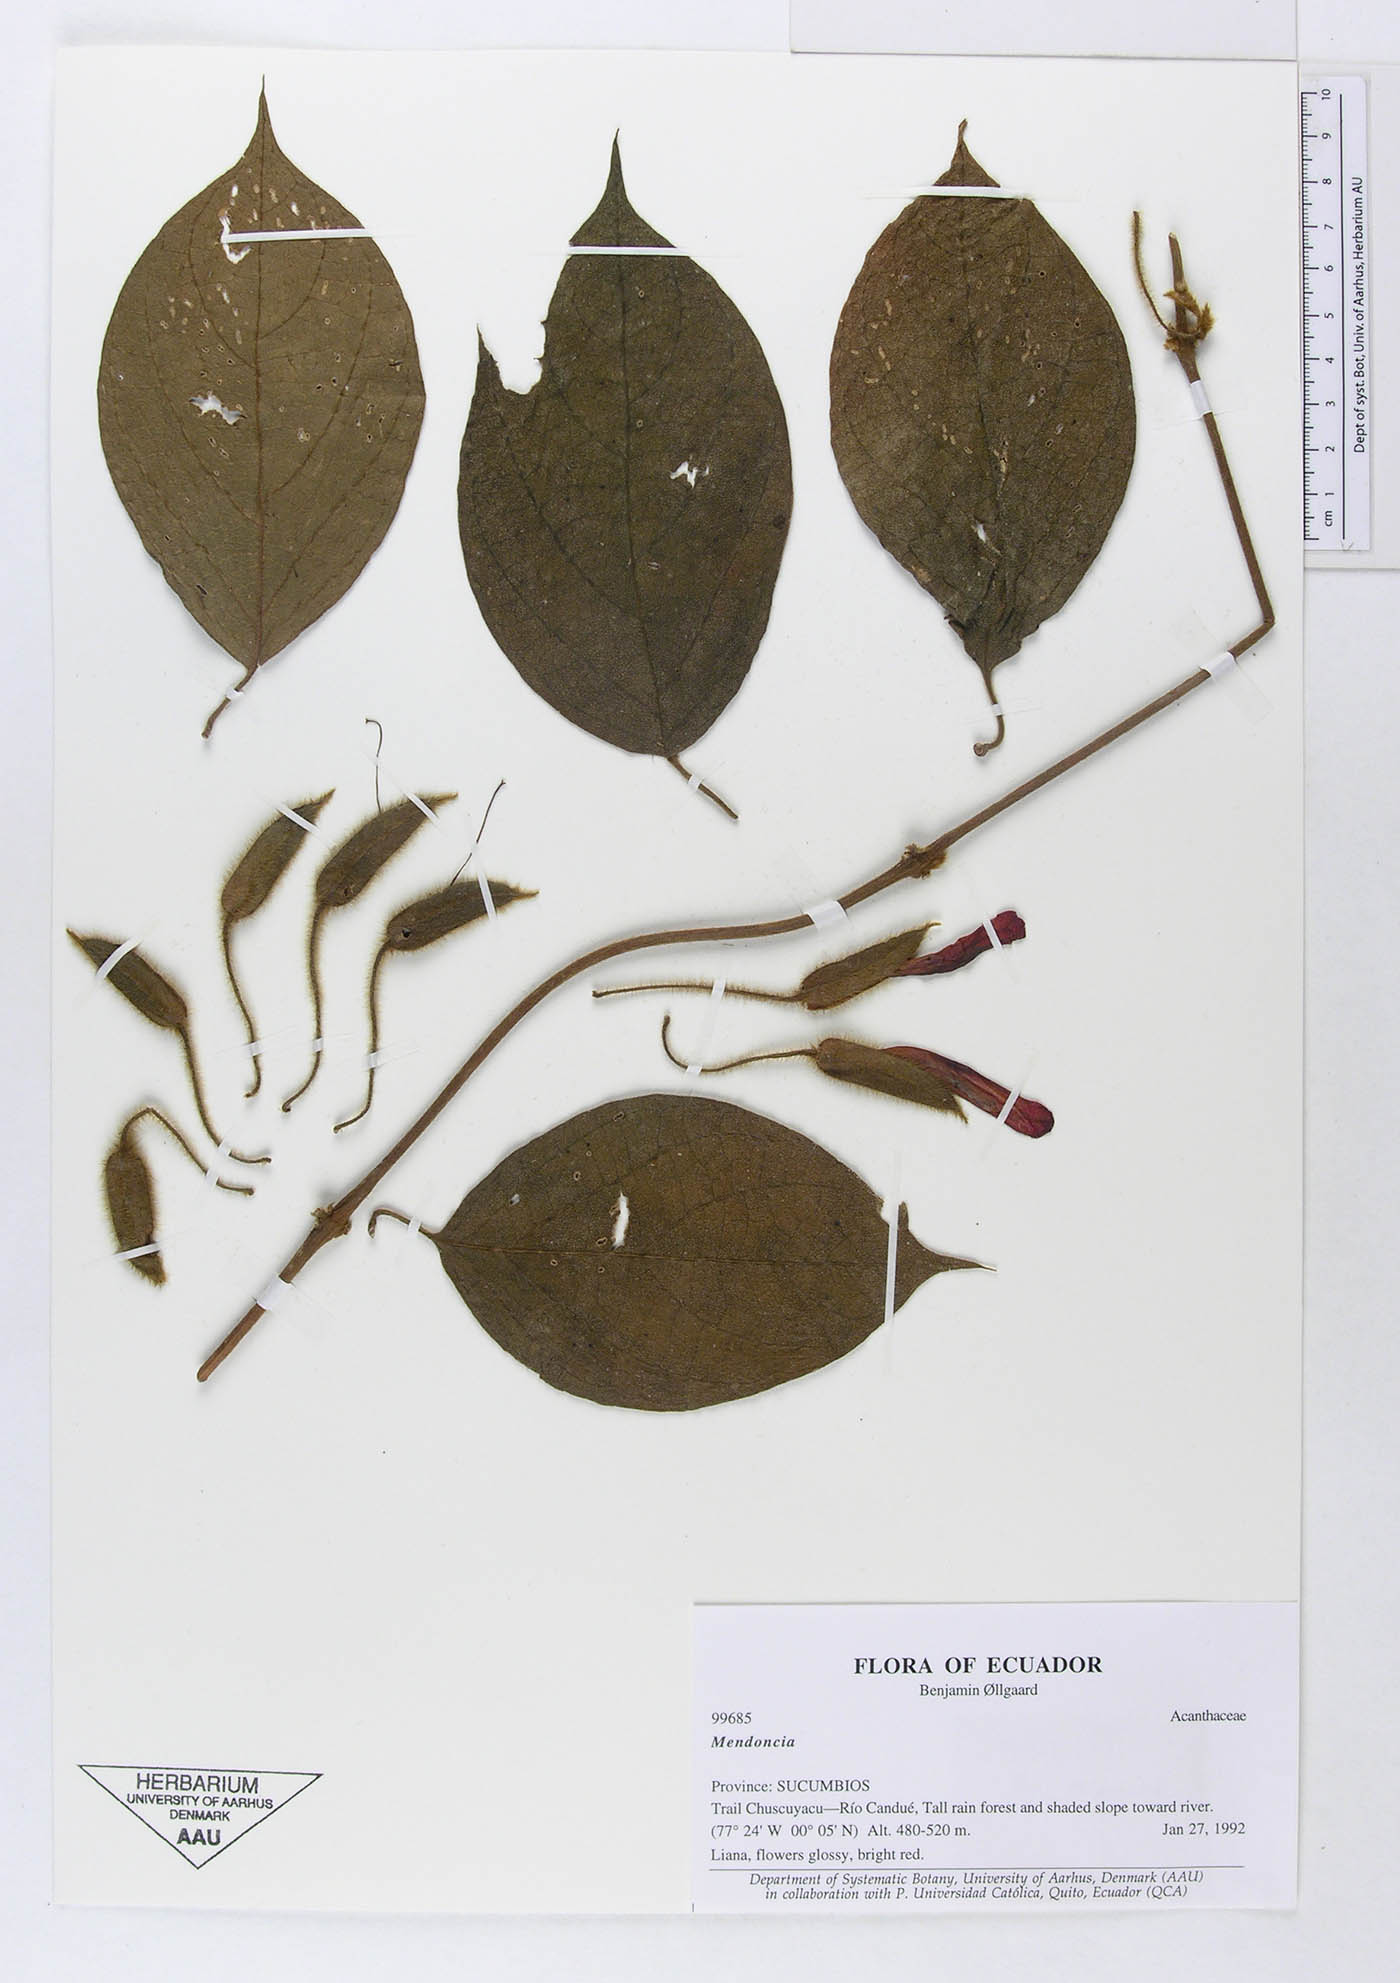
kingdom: Plantae
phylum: Tracheophyta
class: Magnoliopsida
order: Lamiales
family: Acanthaceae
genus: Mendoncia
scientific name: Mendoncia
